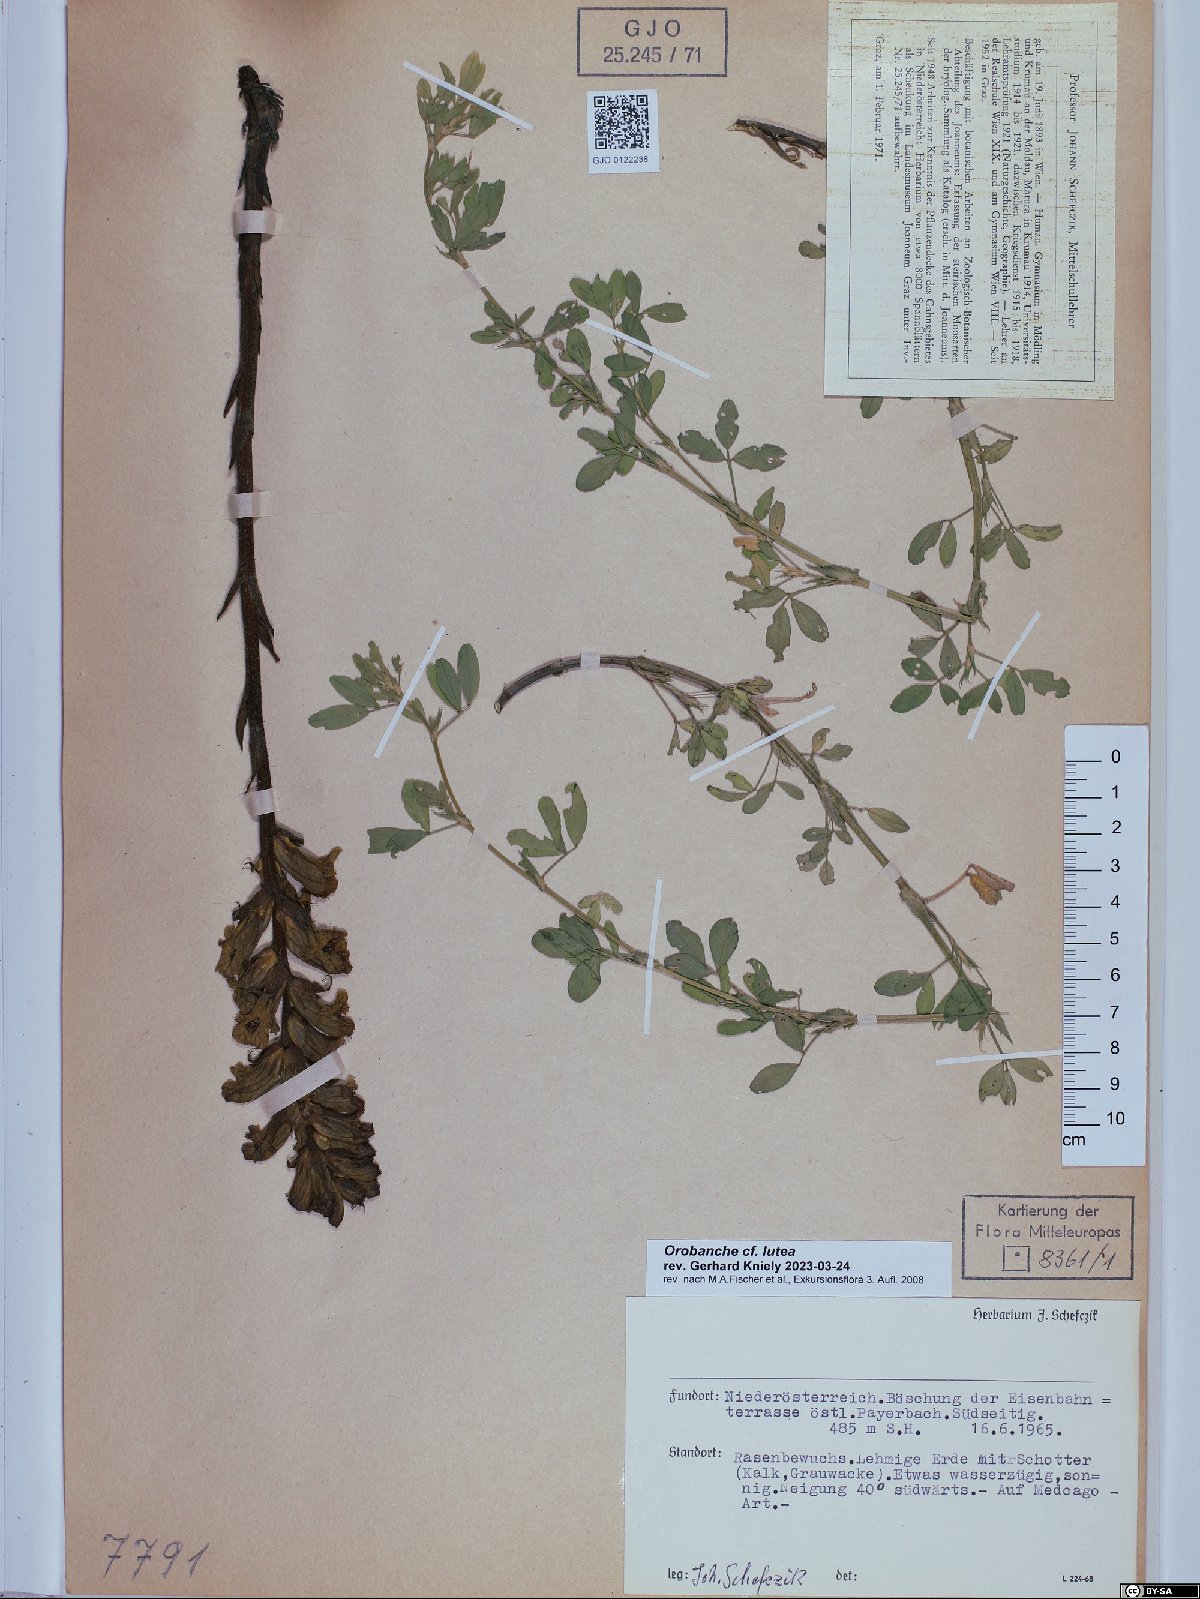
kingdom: Plantae
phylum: Tracheophyta
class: Magnoliopsida
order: Lamiales
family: Orobanchaceae
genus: Orobanche
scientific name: Orobanche lutea
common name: Yellow broomrape
